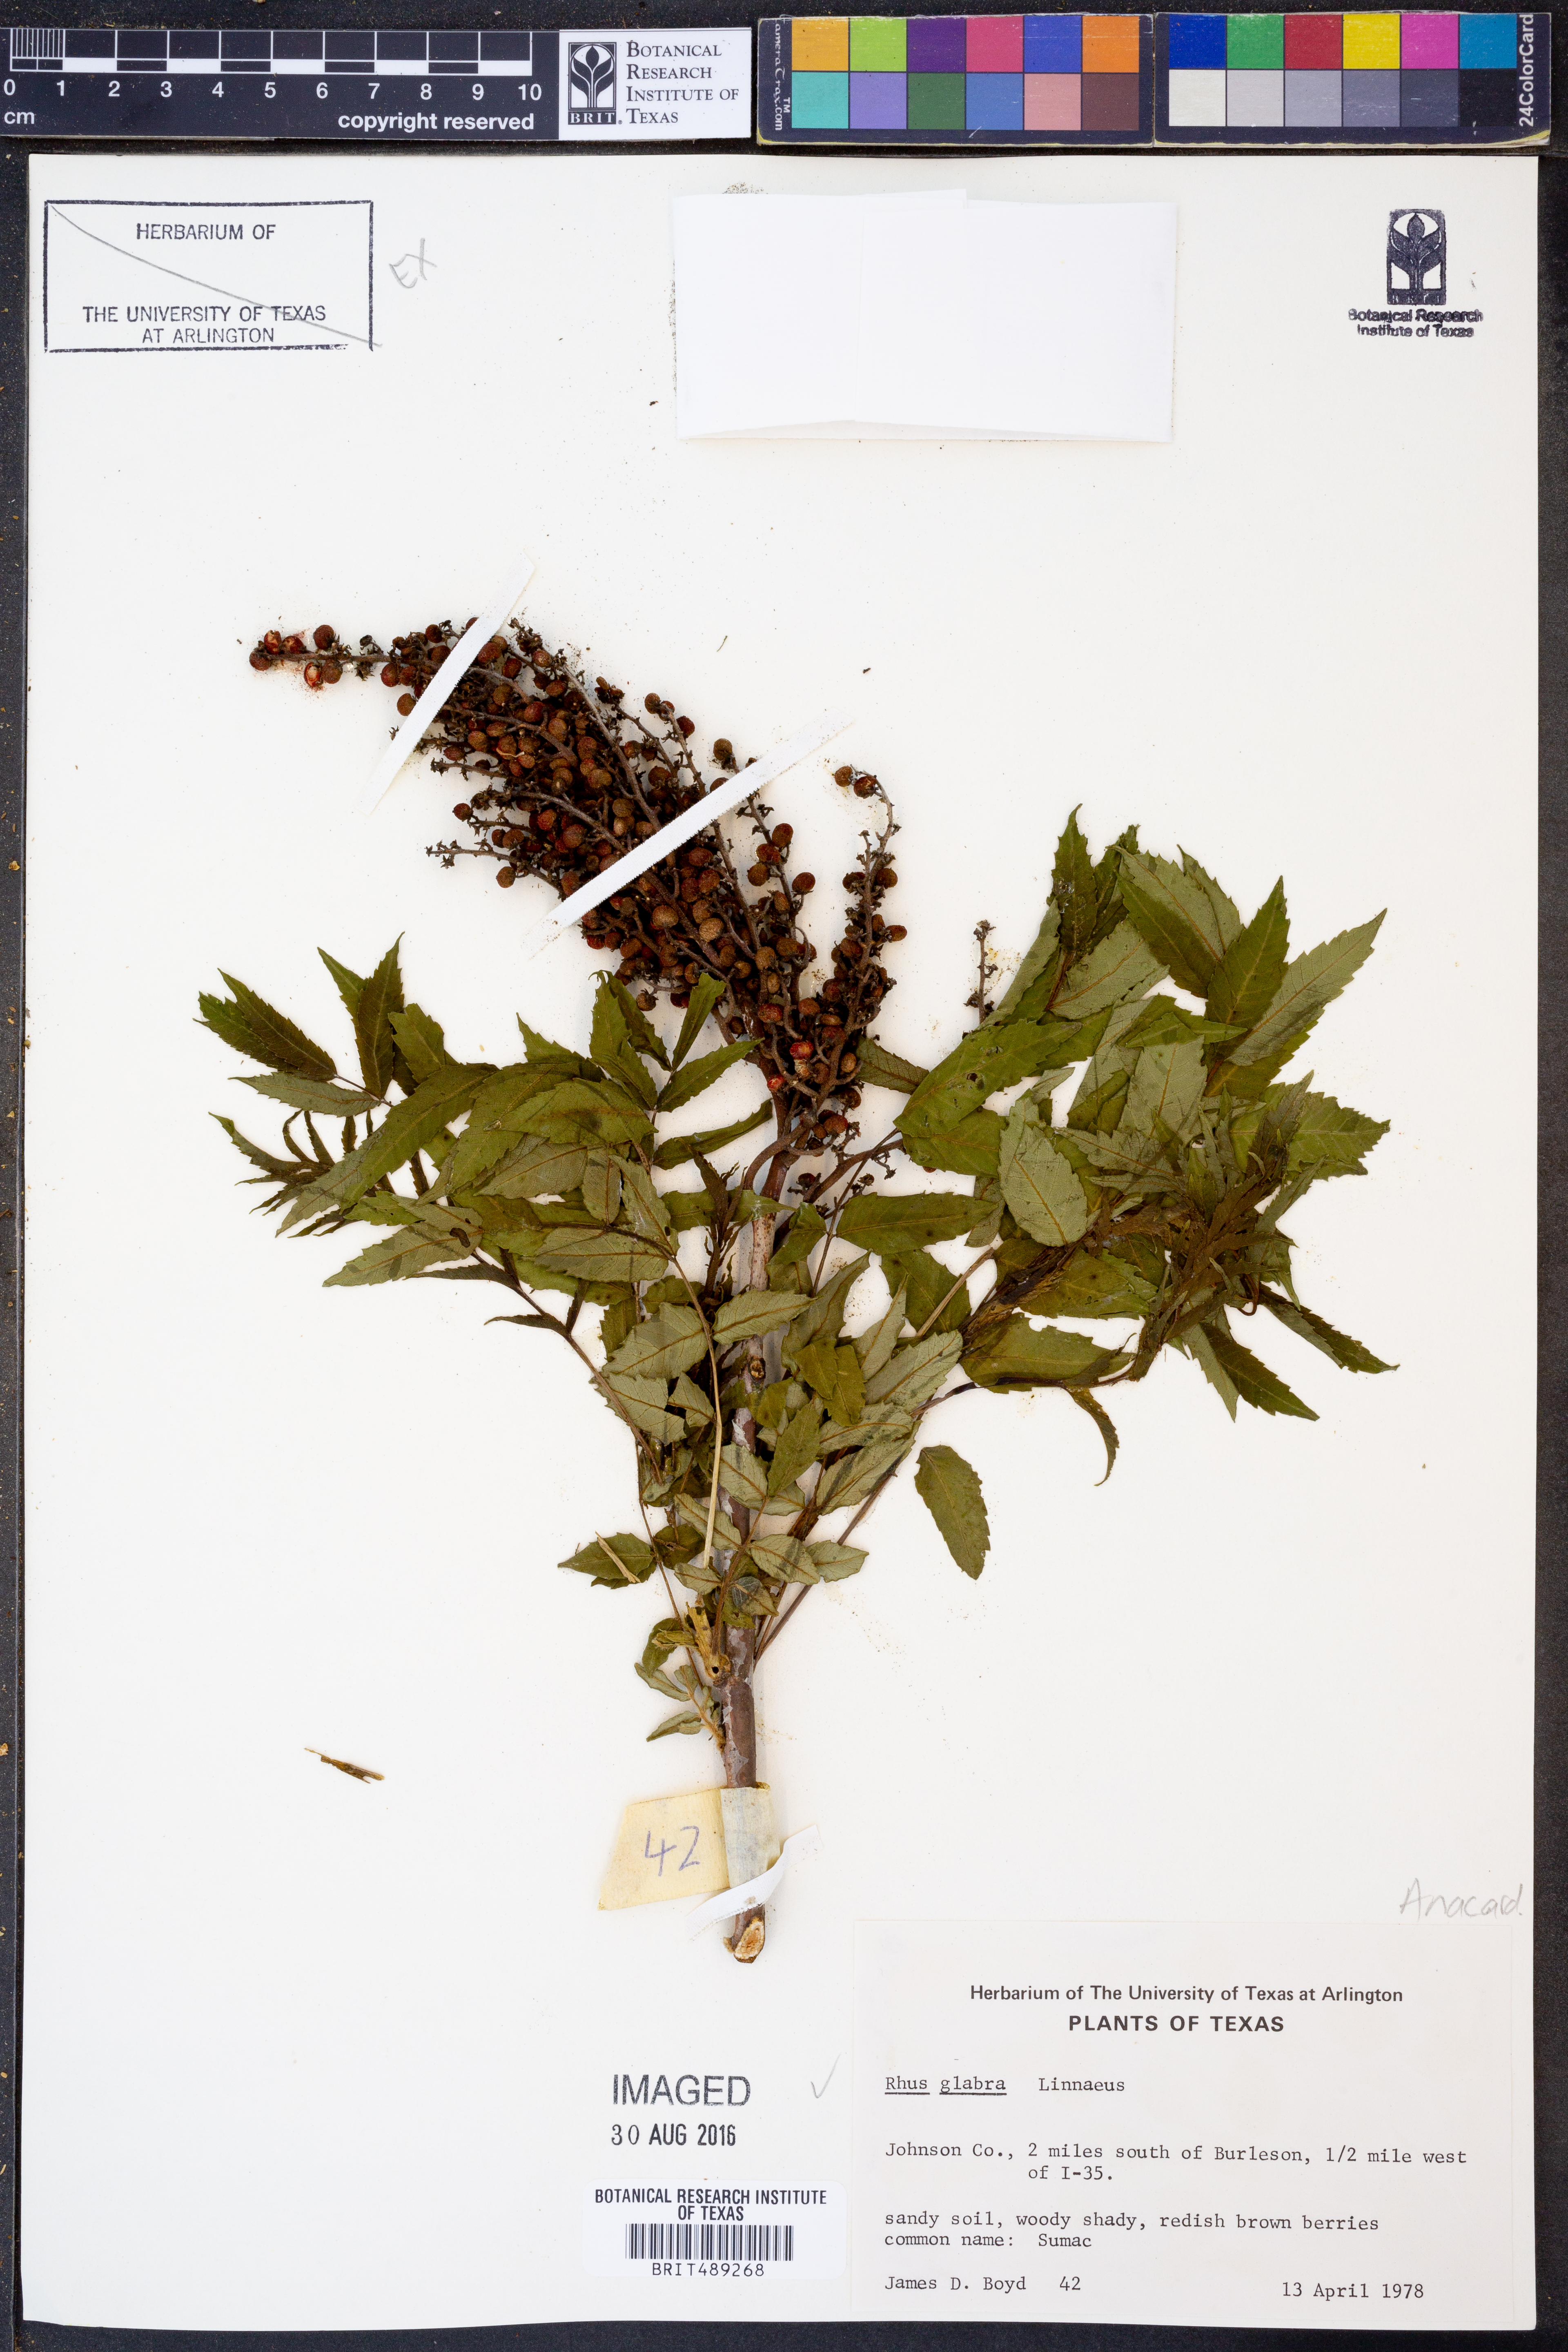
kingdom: Plantae
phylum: Tracheophyta
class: Magnoliopsida
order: Sapindales
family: Anacardiaceae
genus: Rhus
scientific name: Rhus glabra
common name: Scarlet sumac
